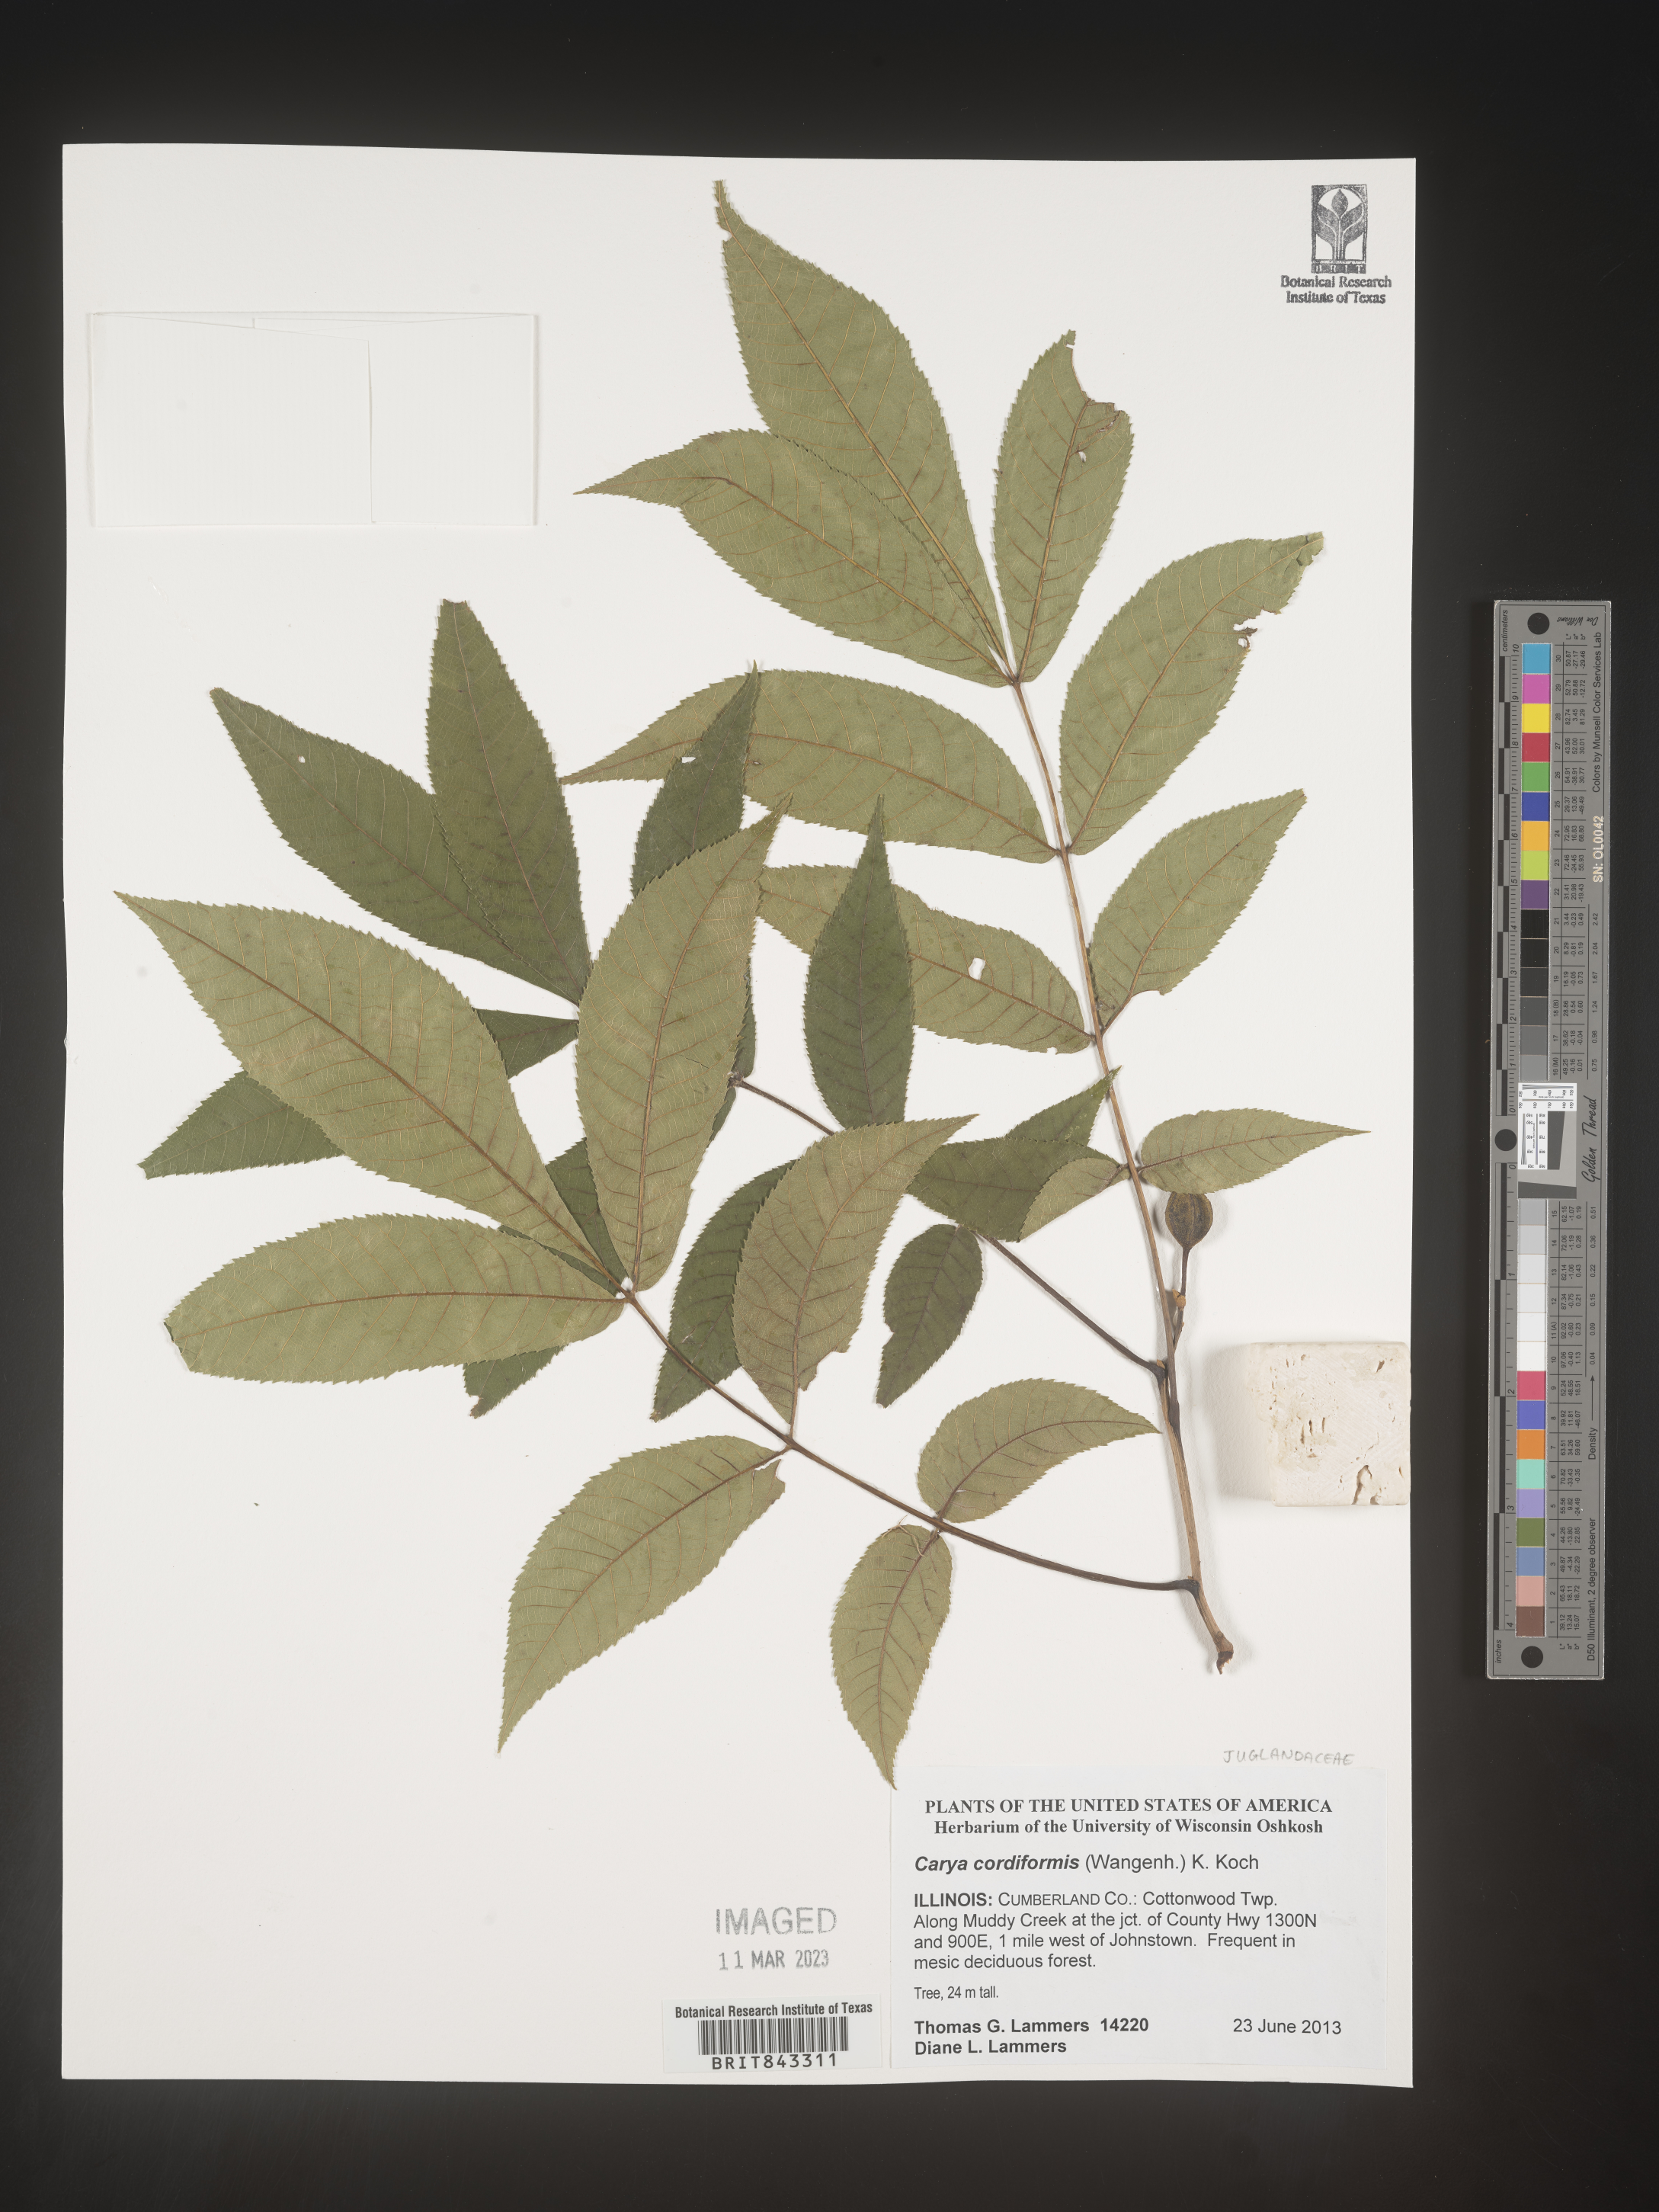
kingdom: Plantae
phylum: Tracheophyta
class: Magnoliopsida
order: Fagales
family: Juglandaceae
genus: Carya
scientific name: Carya cordiformis
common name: Bitternut hickory
